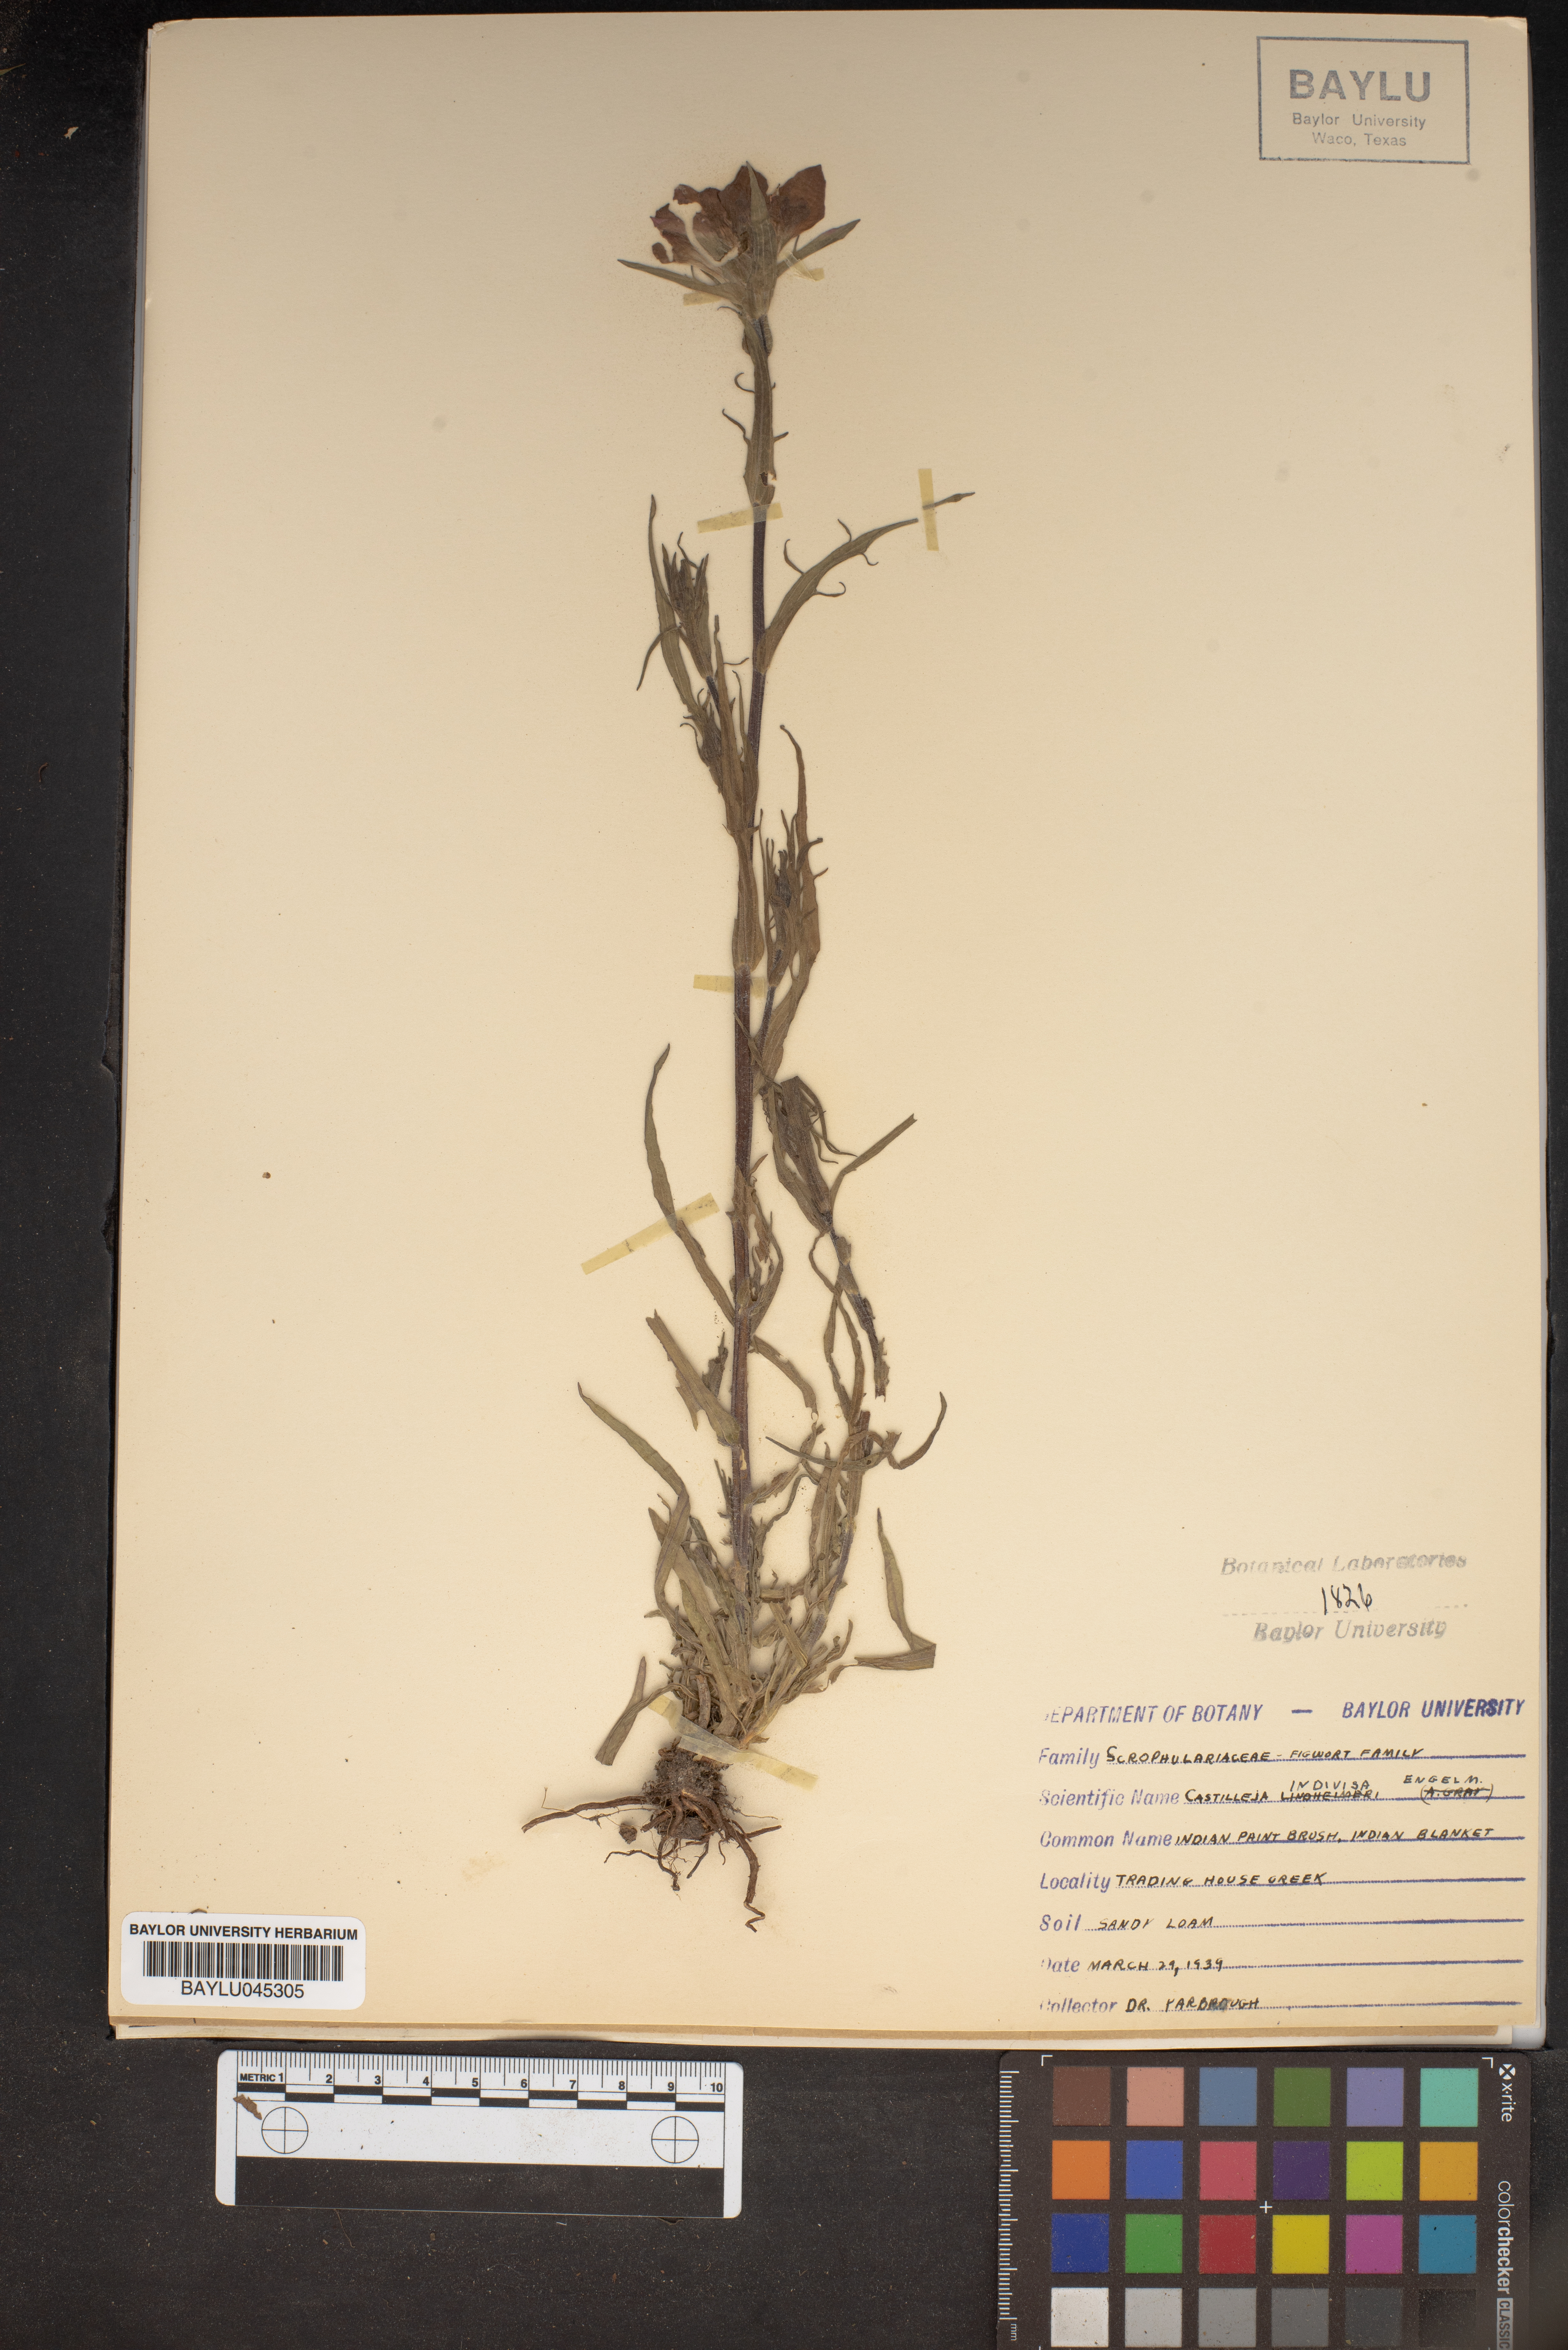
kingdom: Plantae
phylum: Tracheophyta
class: Magnoliopsida
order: Lamiales
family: Orobanchaceae
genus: Castilleja
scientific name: Castilleja indivisa
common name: Texas paintbrush
